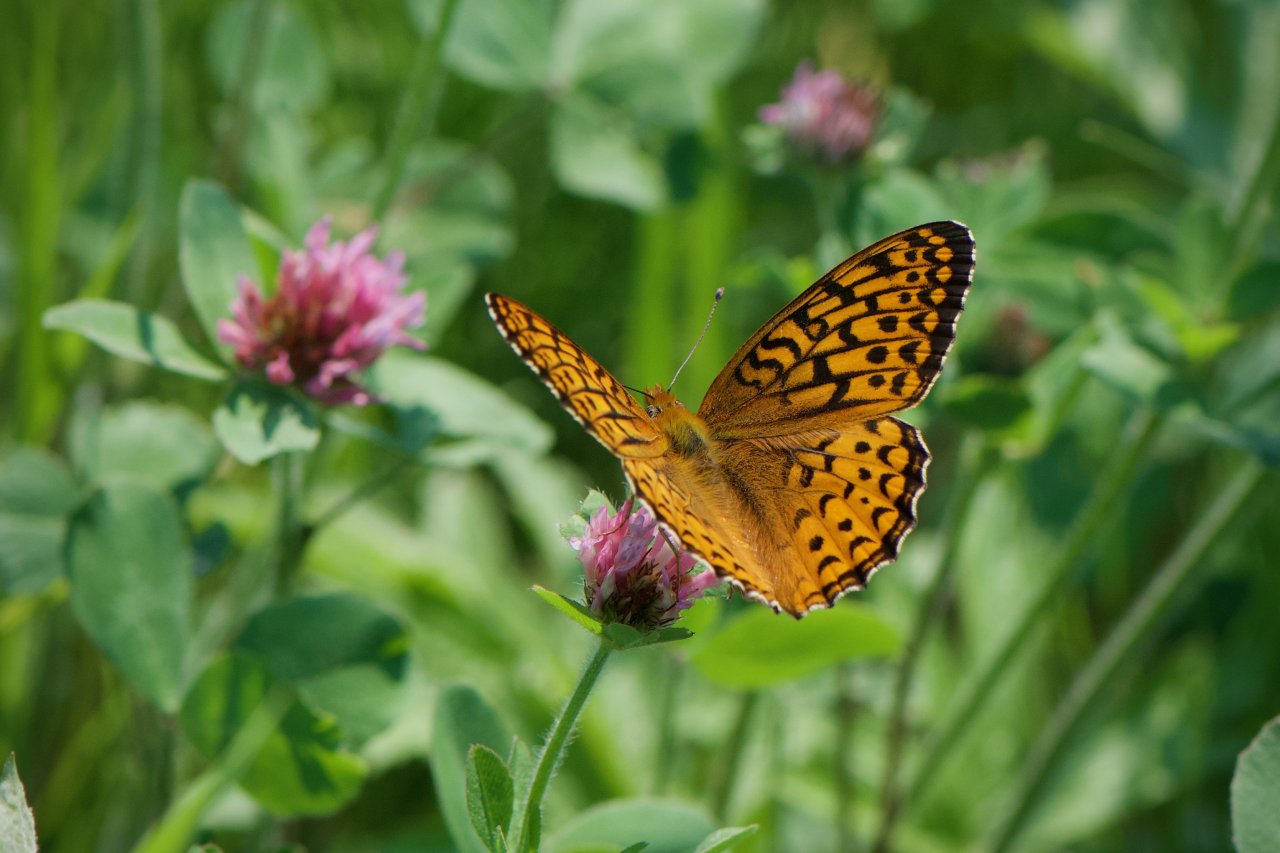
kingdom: Animalia
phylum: Arthropoda
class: Insecta
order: Lepidoptera
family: Nymphalidae
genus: Speyeria
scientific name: Speyeria atlantis
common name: Atlantis Fritillary
